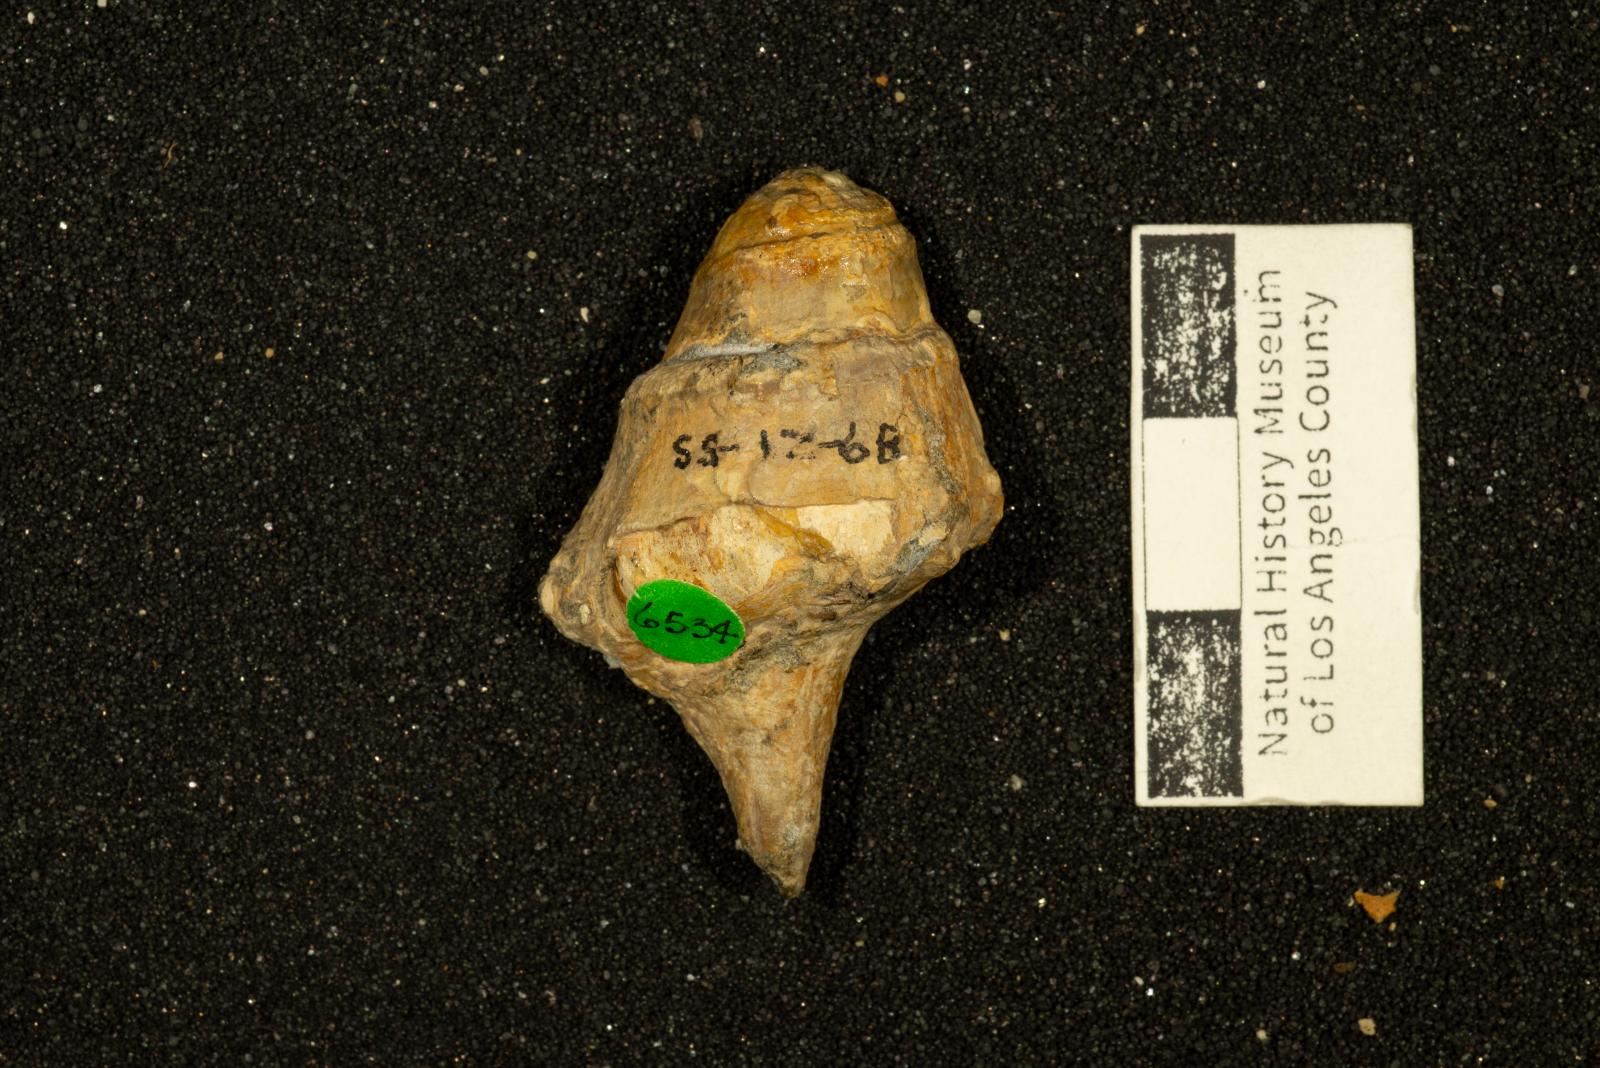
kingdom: Animalia
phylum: Mollusca
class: Gastropoda
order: Neogastropoda
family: Perissityidae
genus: Perissitys
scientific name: Perissitys colocara
